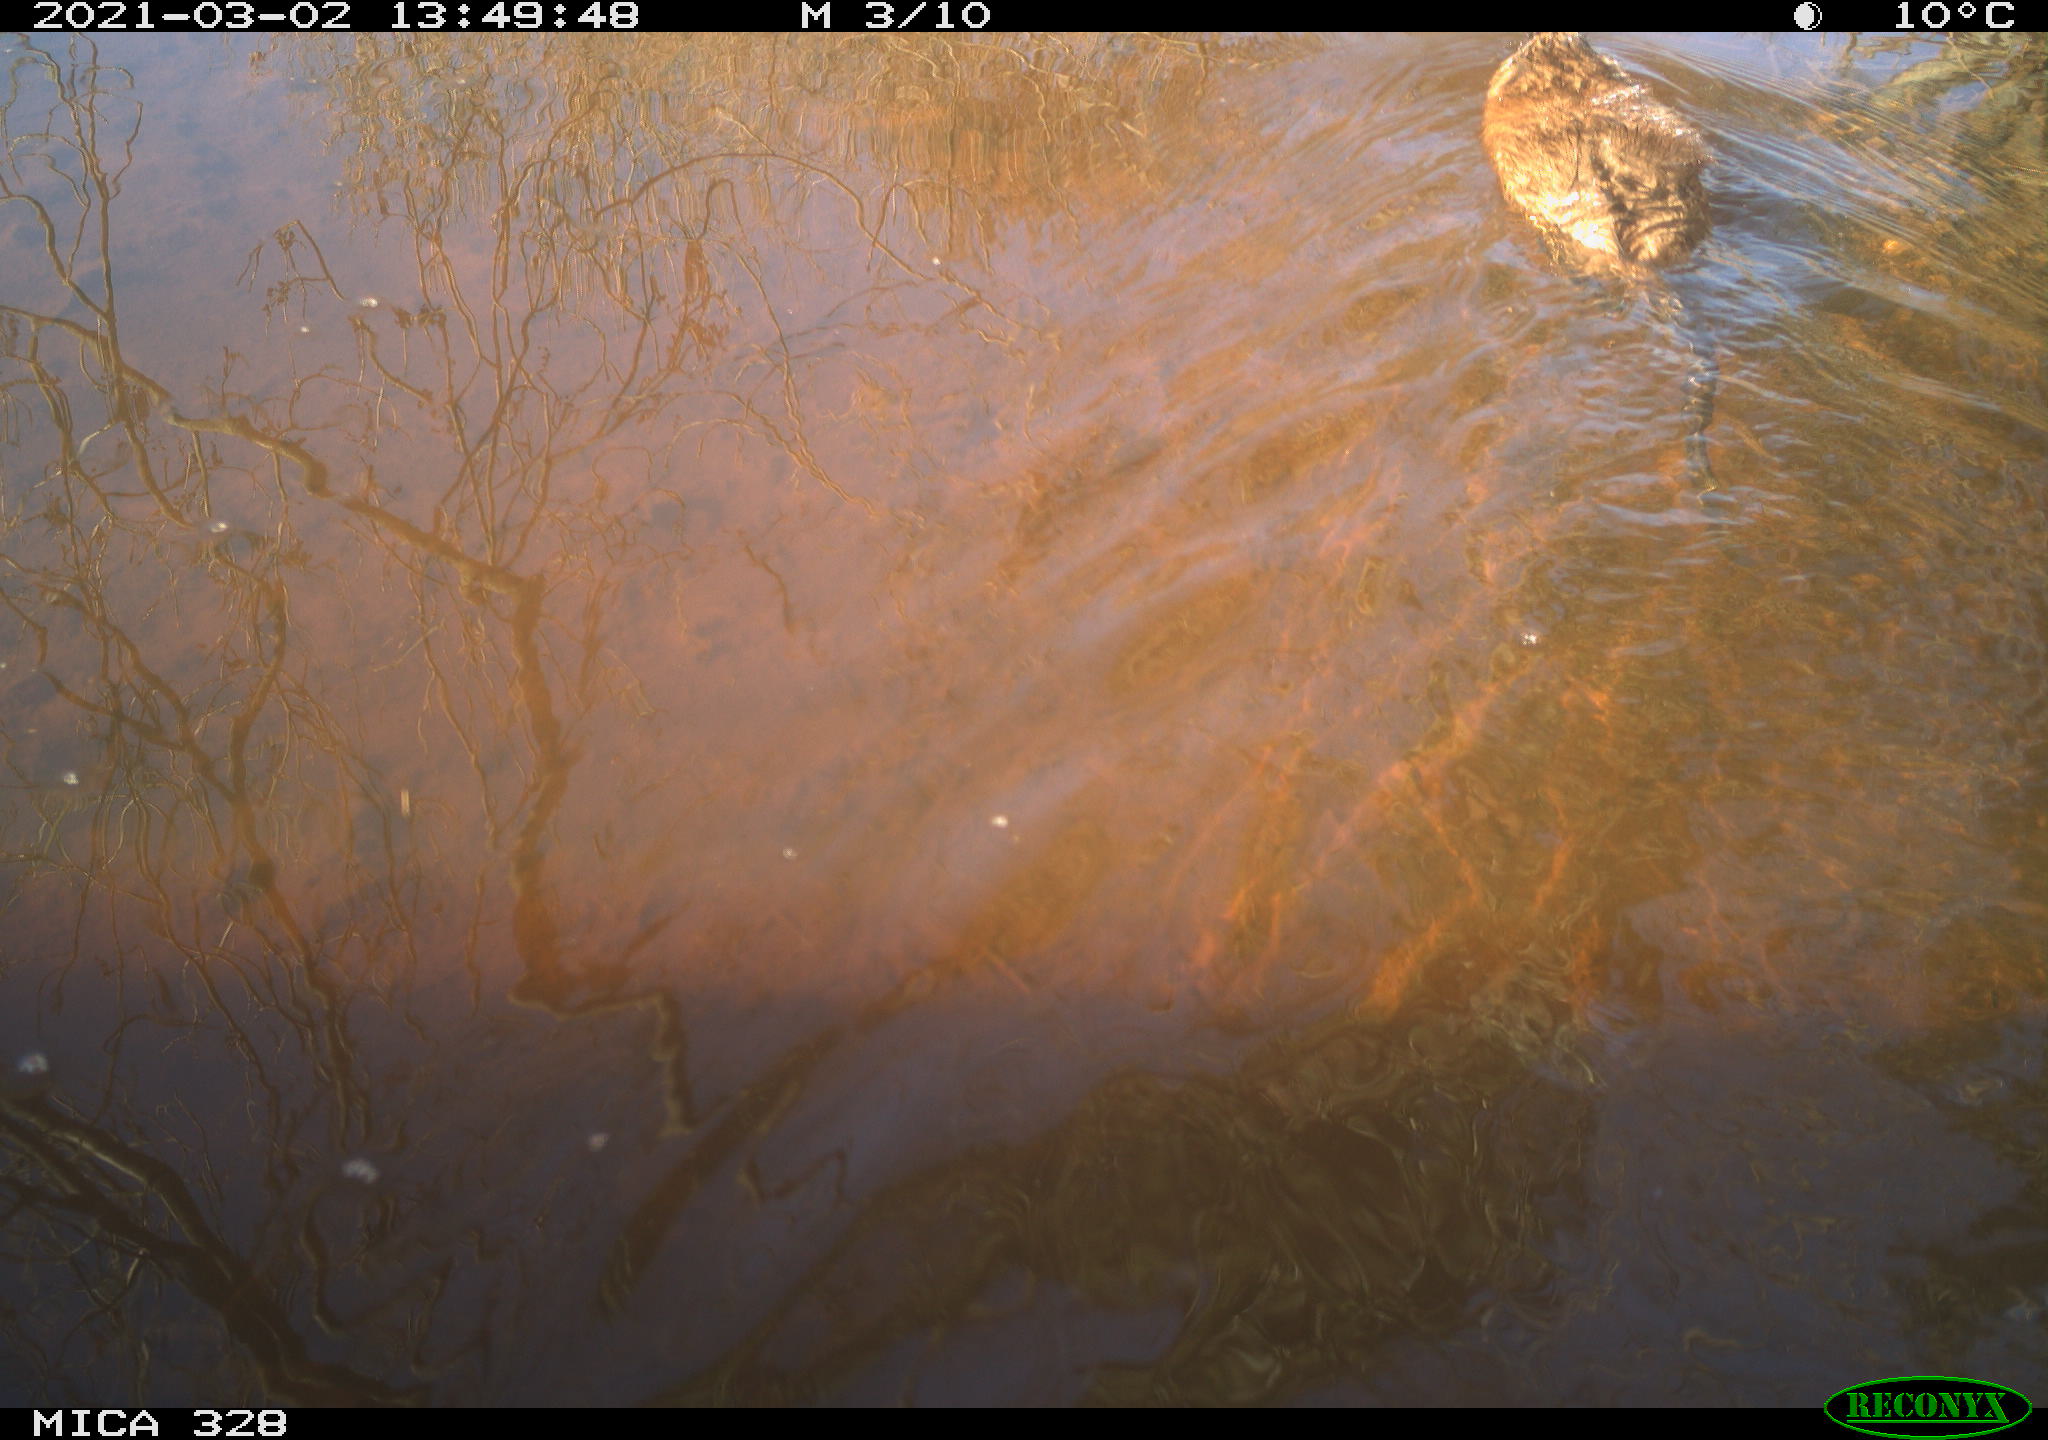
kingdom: Animalia
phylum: Chordata
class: Mammalia
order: Rodentia
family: Cricetidae
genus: Ondatra
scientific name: Ondatra zibethicus
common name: Muskrat
